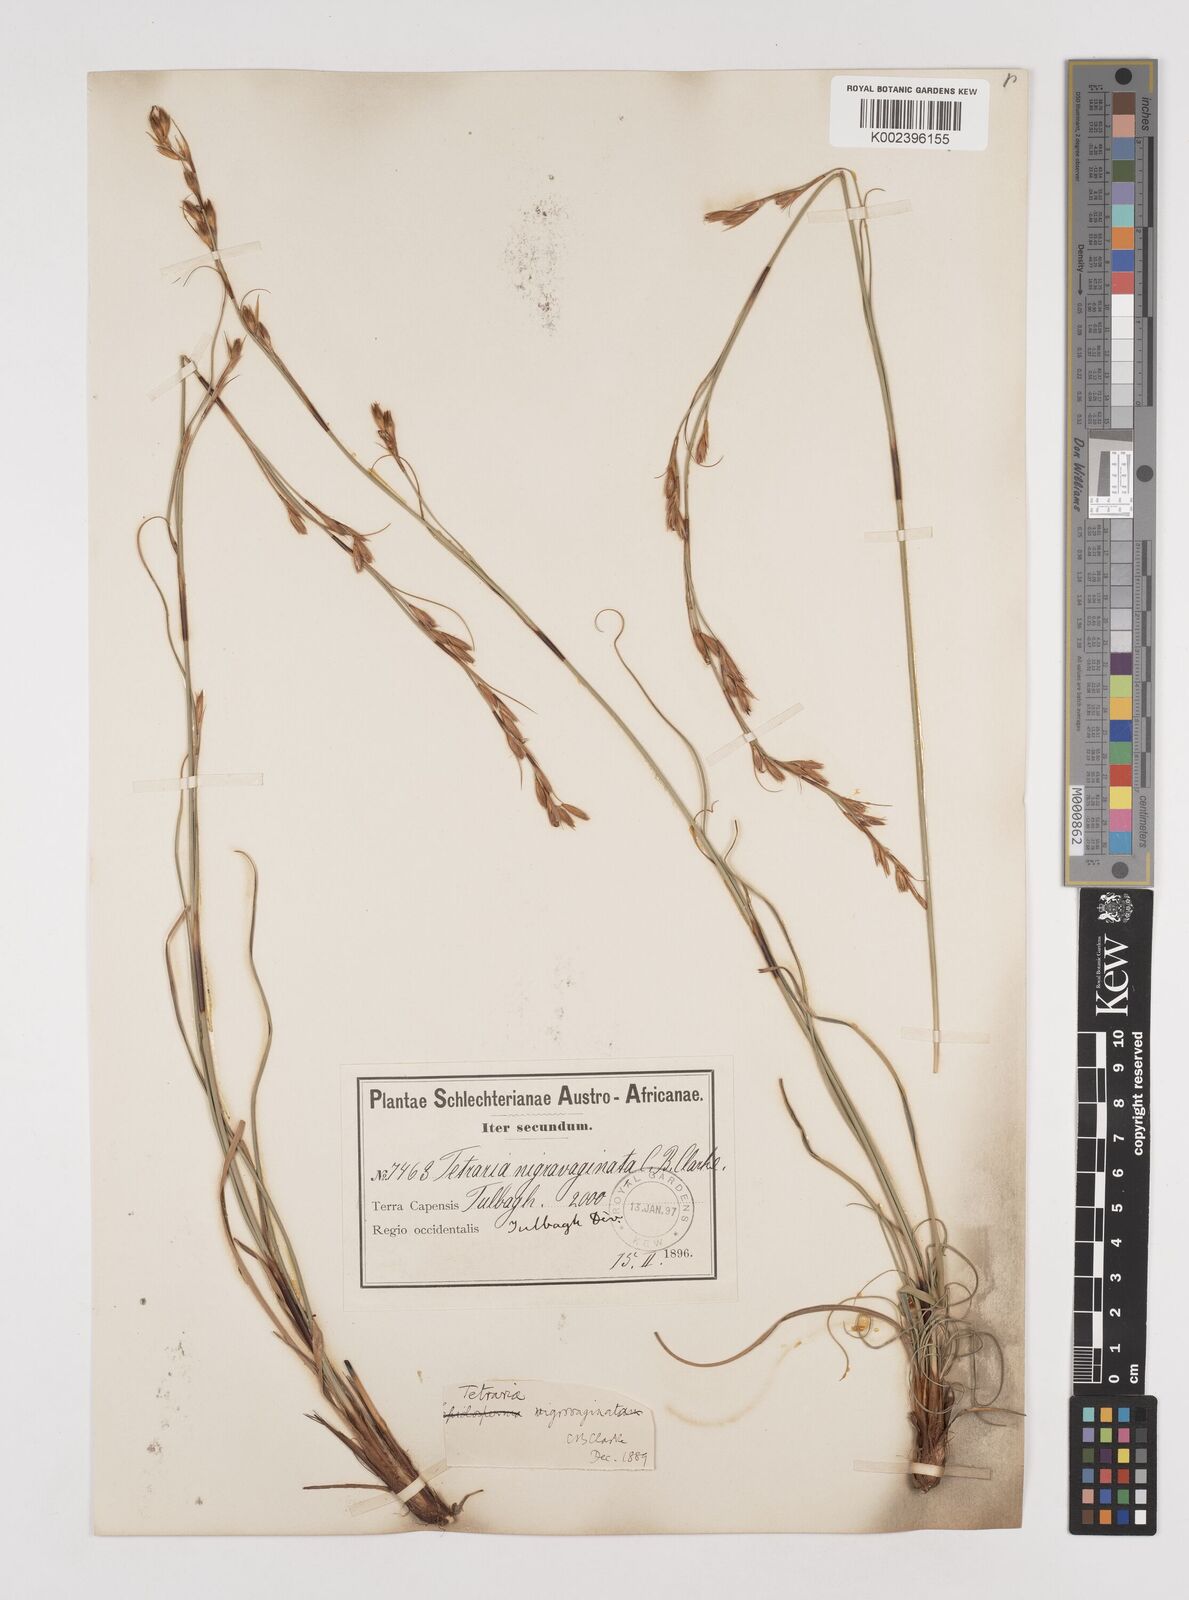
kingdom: Plantae
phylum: Tracheophyta
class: Liliopsida
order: Poales
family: Cyperaceae
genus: Tetraria
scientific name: Tetraria nigrovaginata
